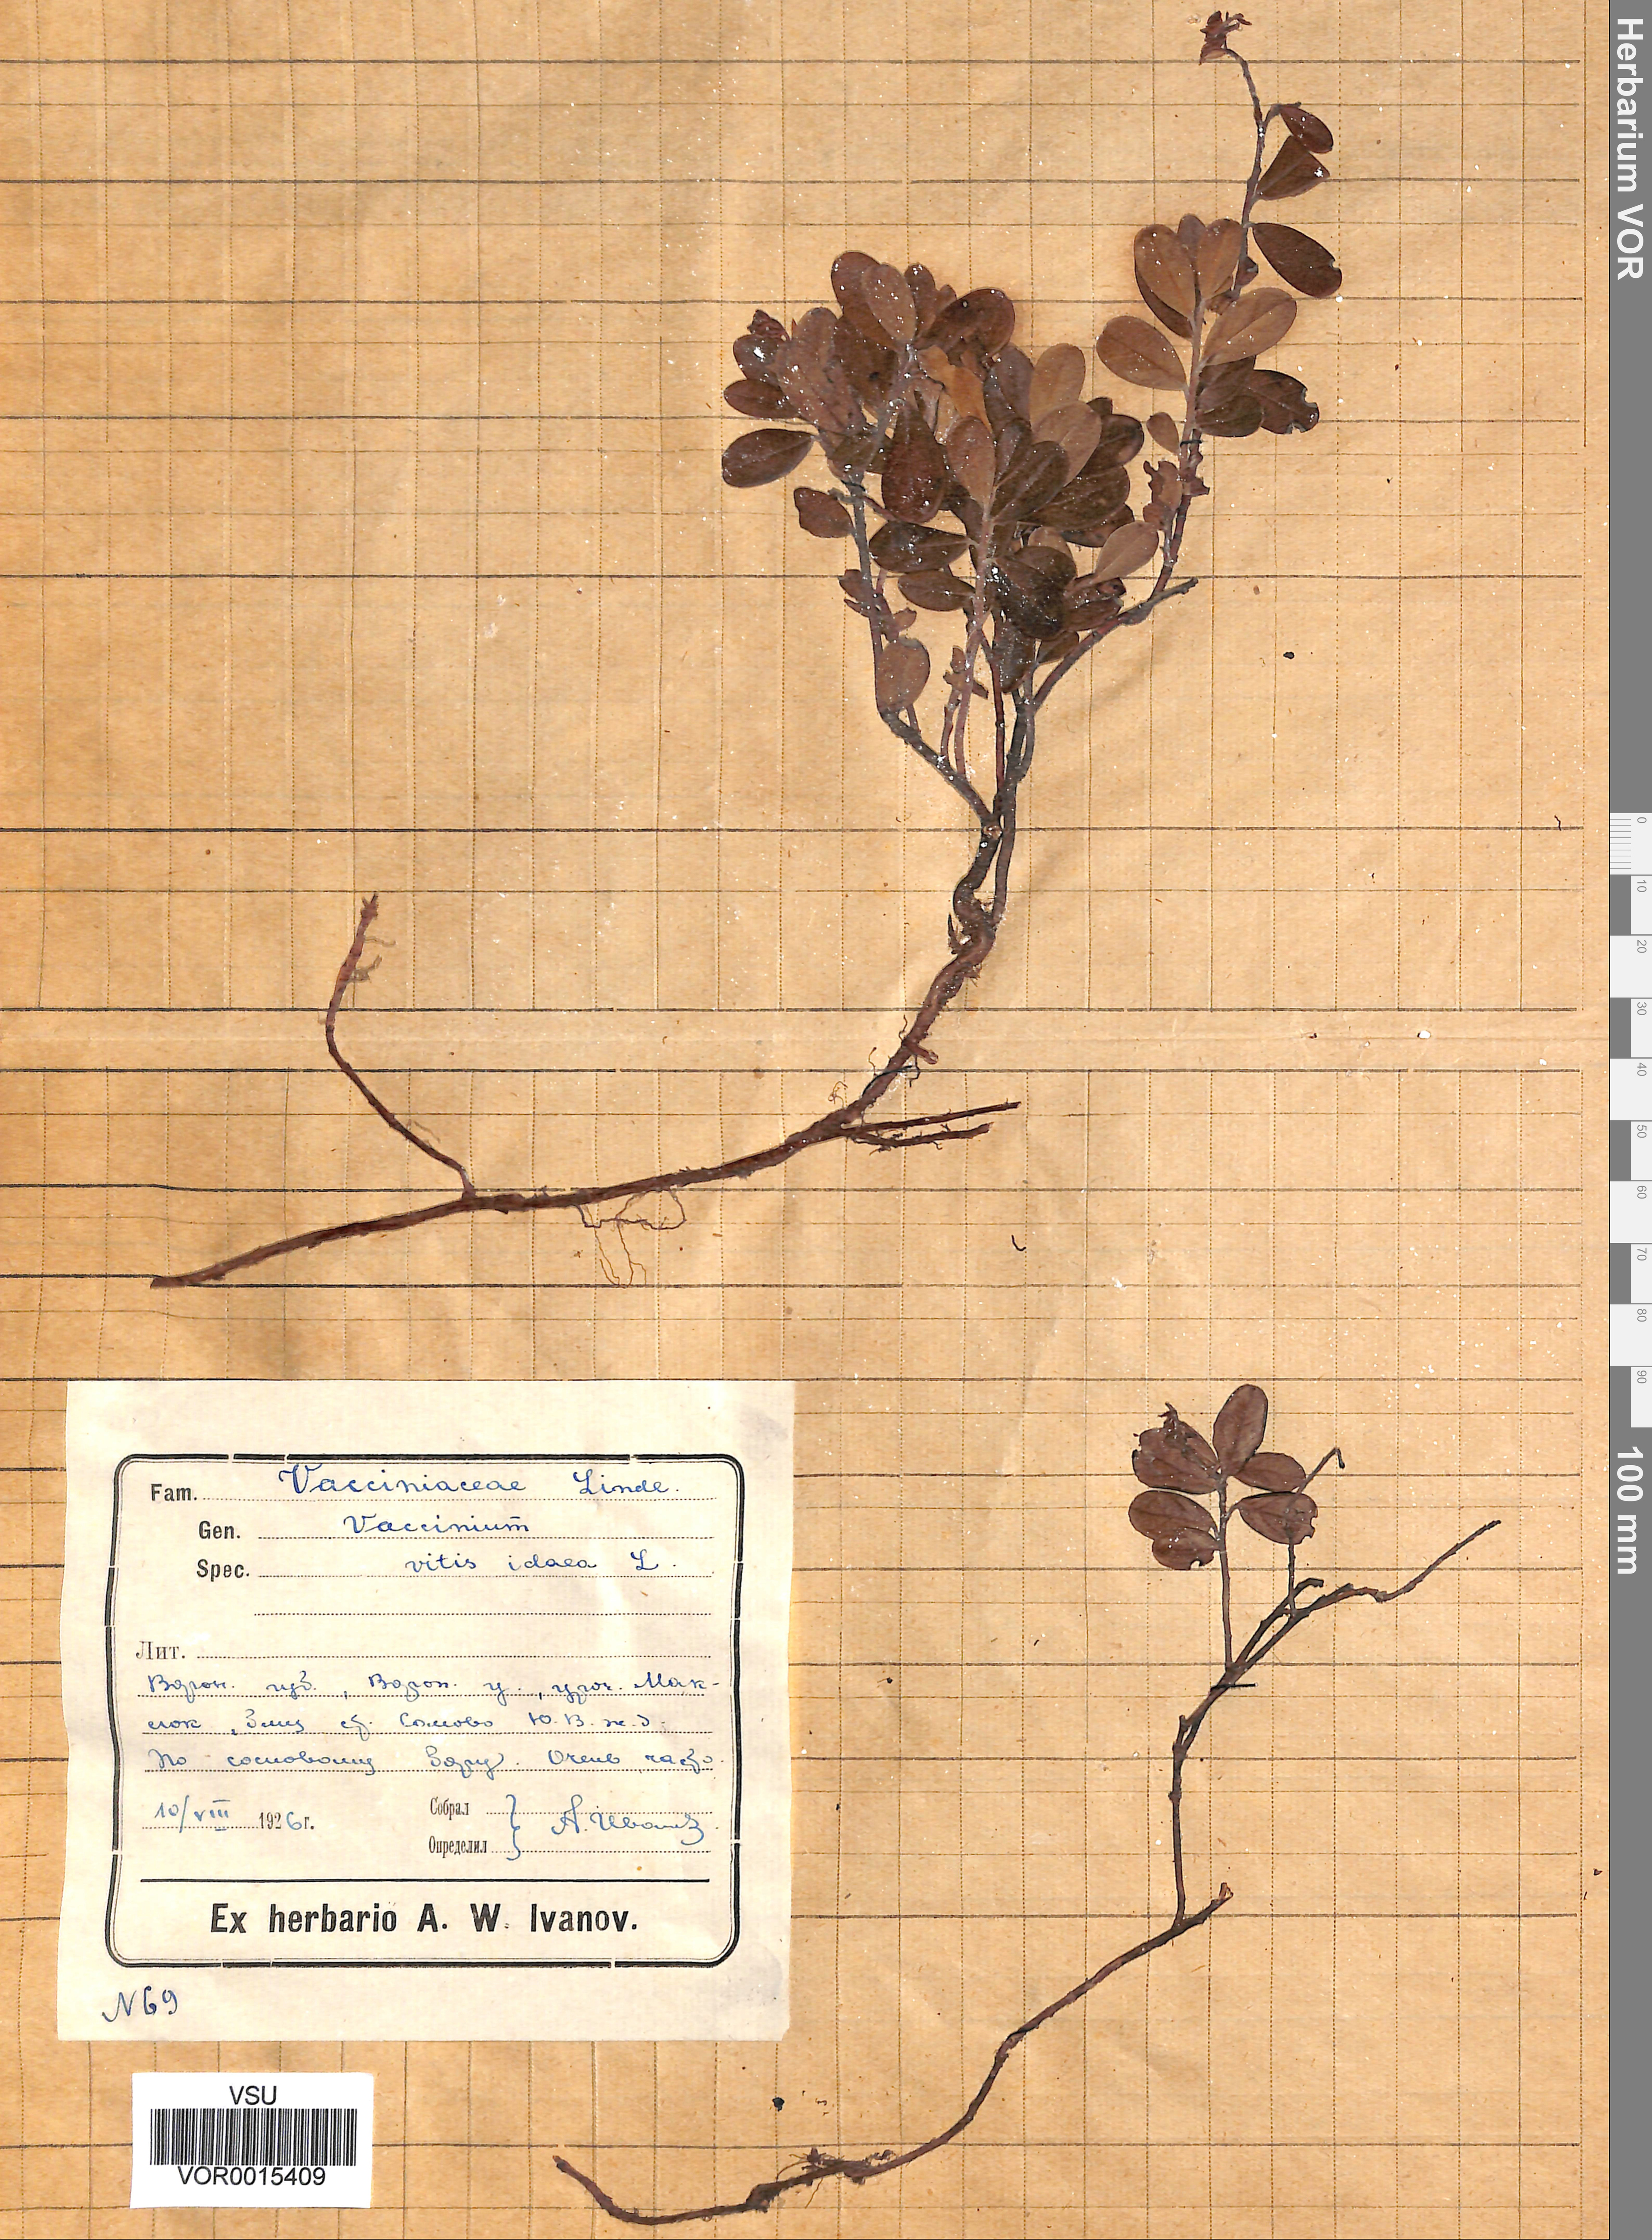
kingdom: Plantae
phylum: Tracheophyta
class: Magnoliopsida
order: Ericales
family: Ericaceae
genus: Vaccinium
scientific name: Vaccinium vitis-idaea
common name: Cowberry
